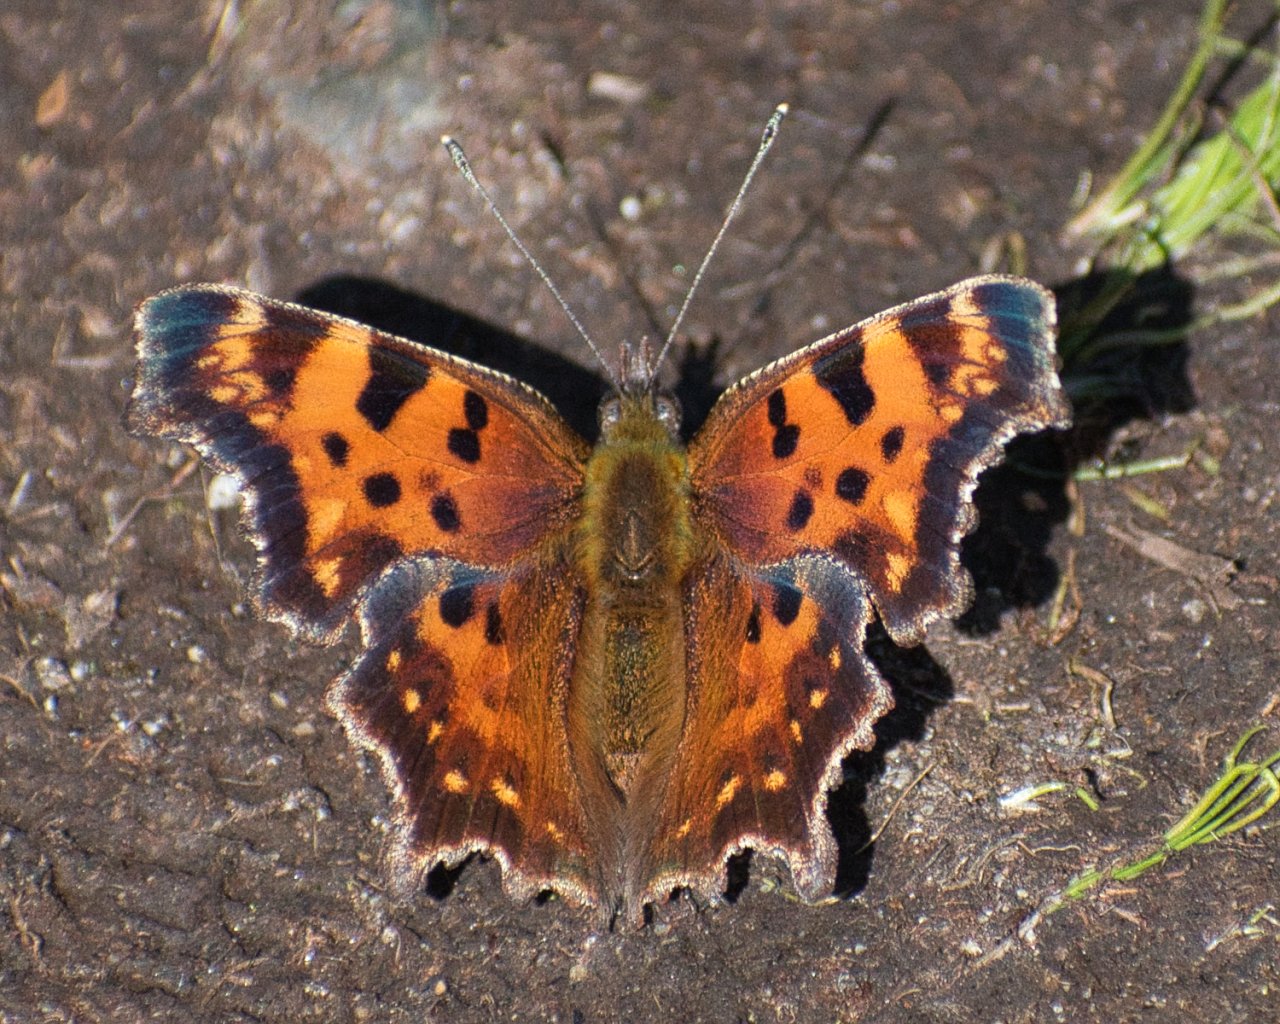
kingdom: Animalia
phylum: Arthropoda
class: Insecta
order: Lepidoptera
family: Nymphalidae
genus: Polygonia
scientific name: Polygonia faunus
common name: Green Comma
